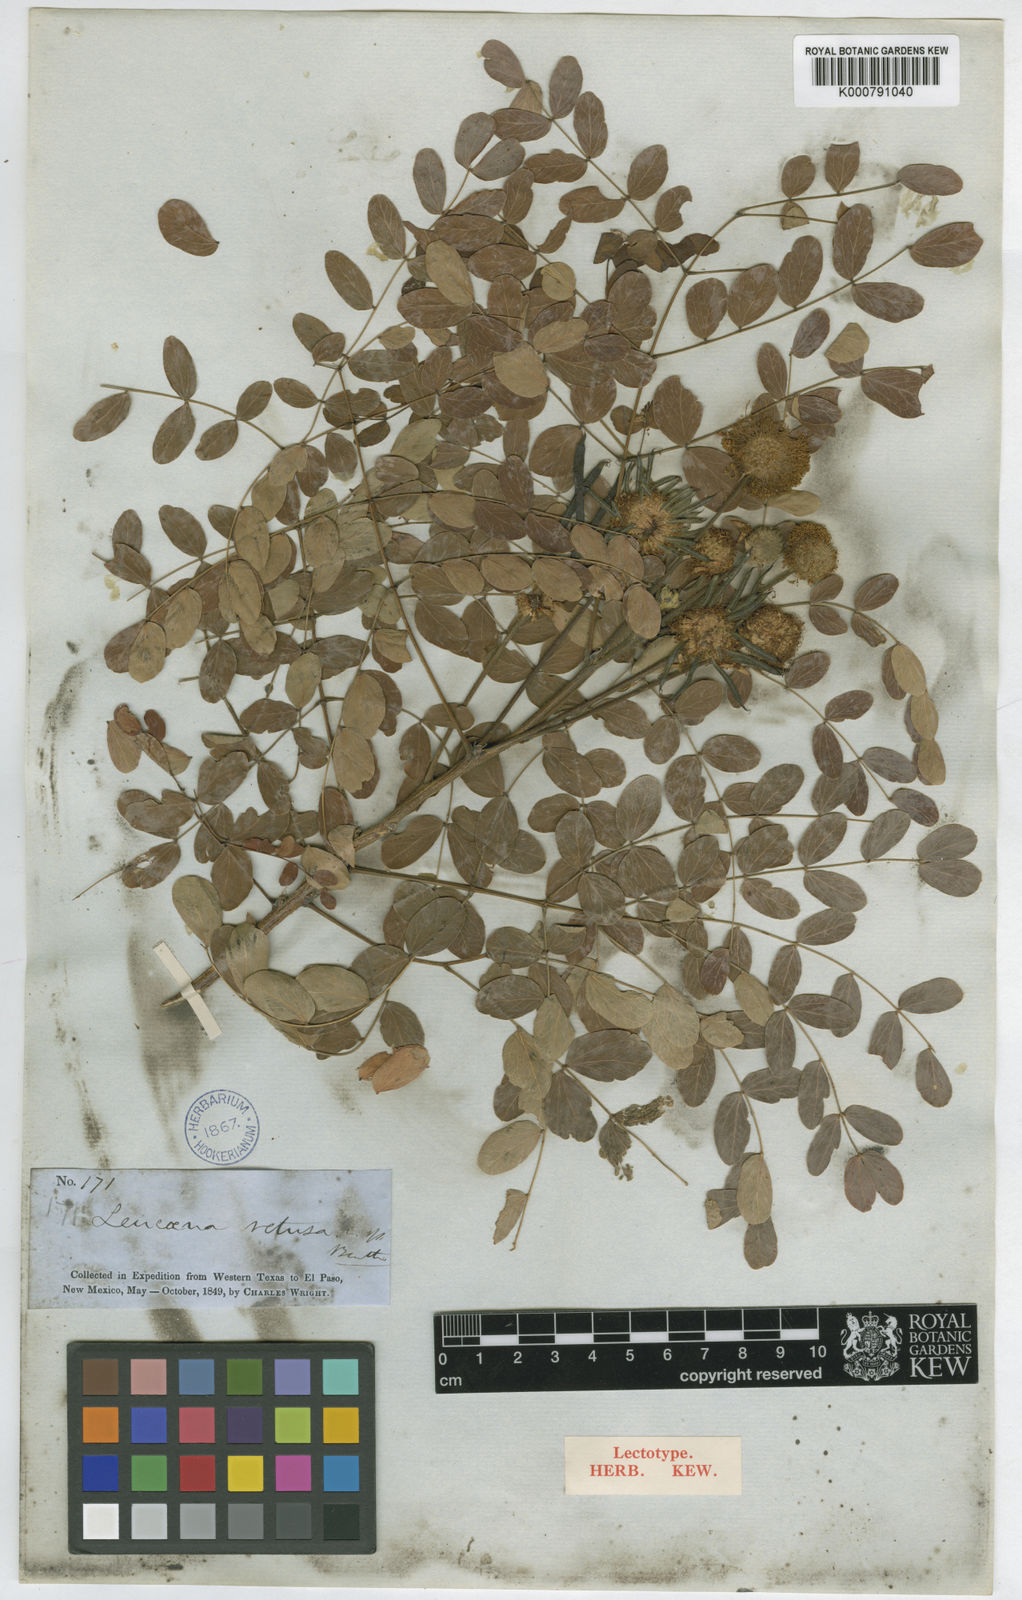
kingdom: Plantae
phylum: Tracheophyta
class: Magnoliopsida
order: Fabales
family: Fabaceae
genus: Leucaena
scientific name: Leucaena retusa
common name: Littleleaf leadtree
